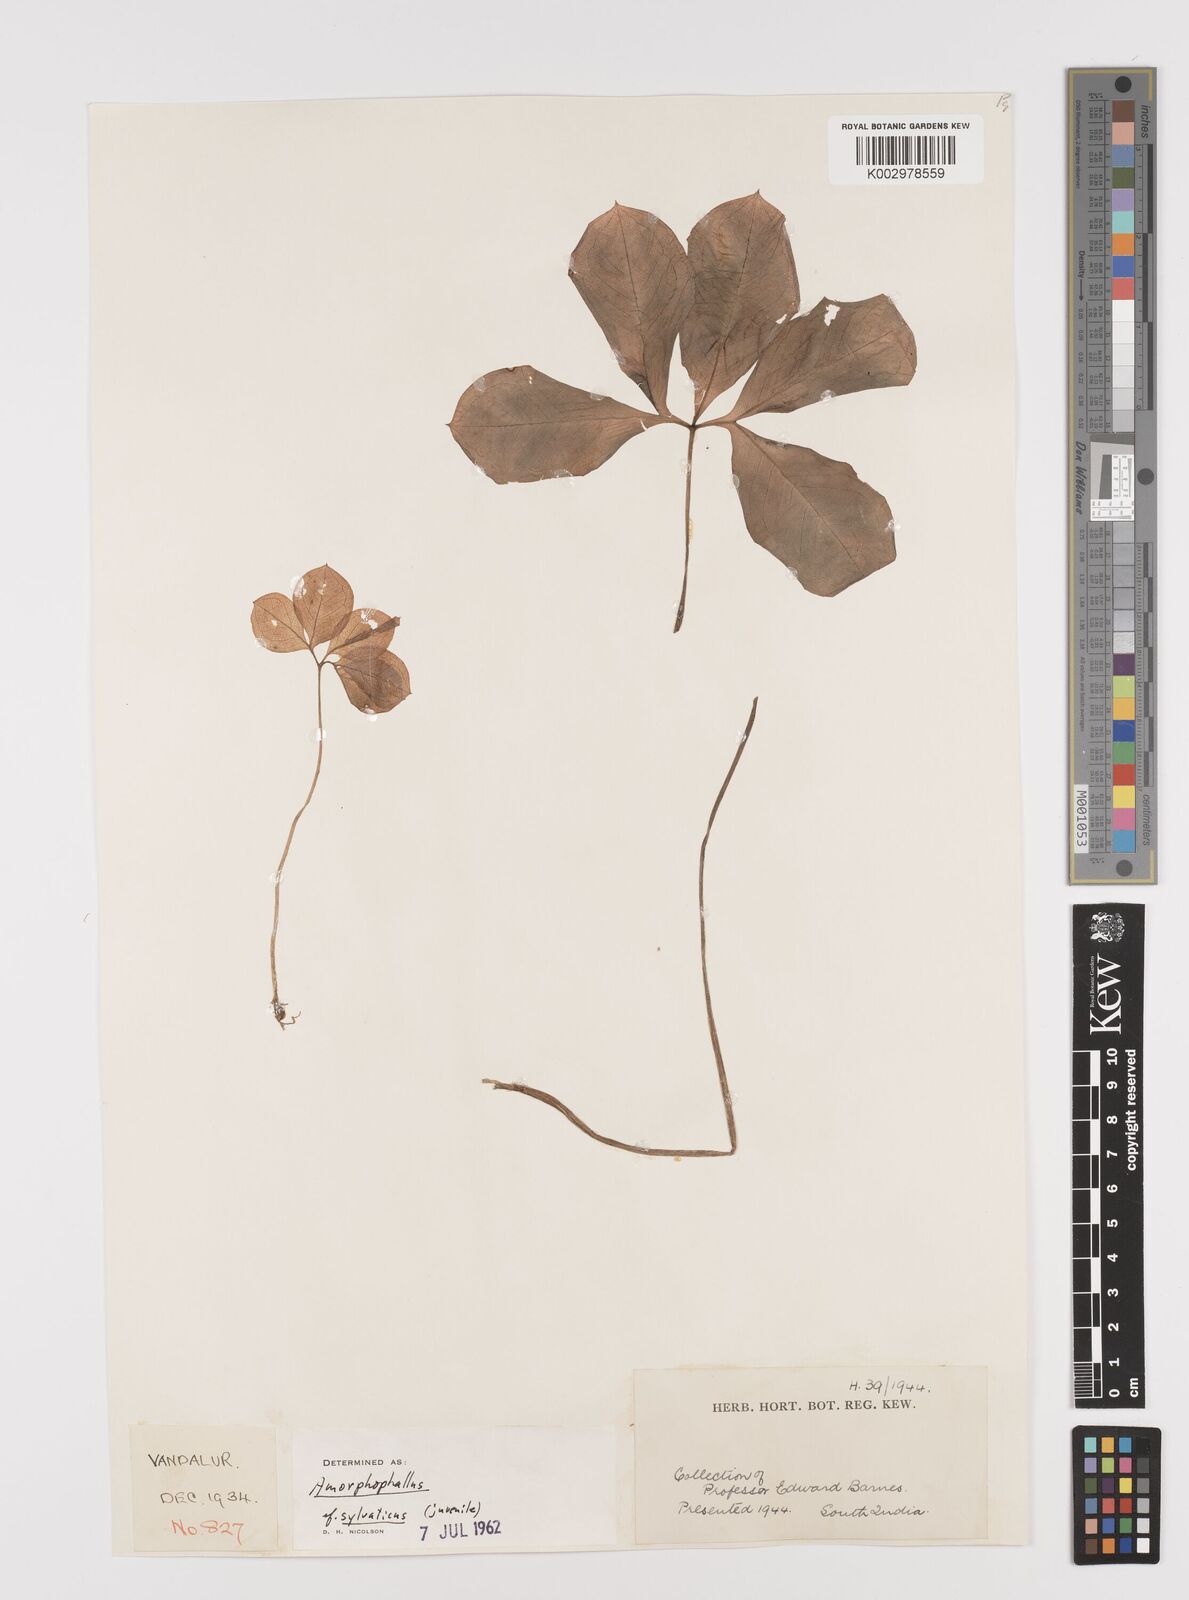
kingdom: Plantae
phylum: Tracheophyta
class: Liliopsida
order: Alismatales
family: Araceae
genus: Amorphophallus
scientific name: Amorphophallus sylvaticus
